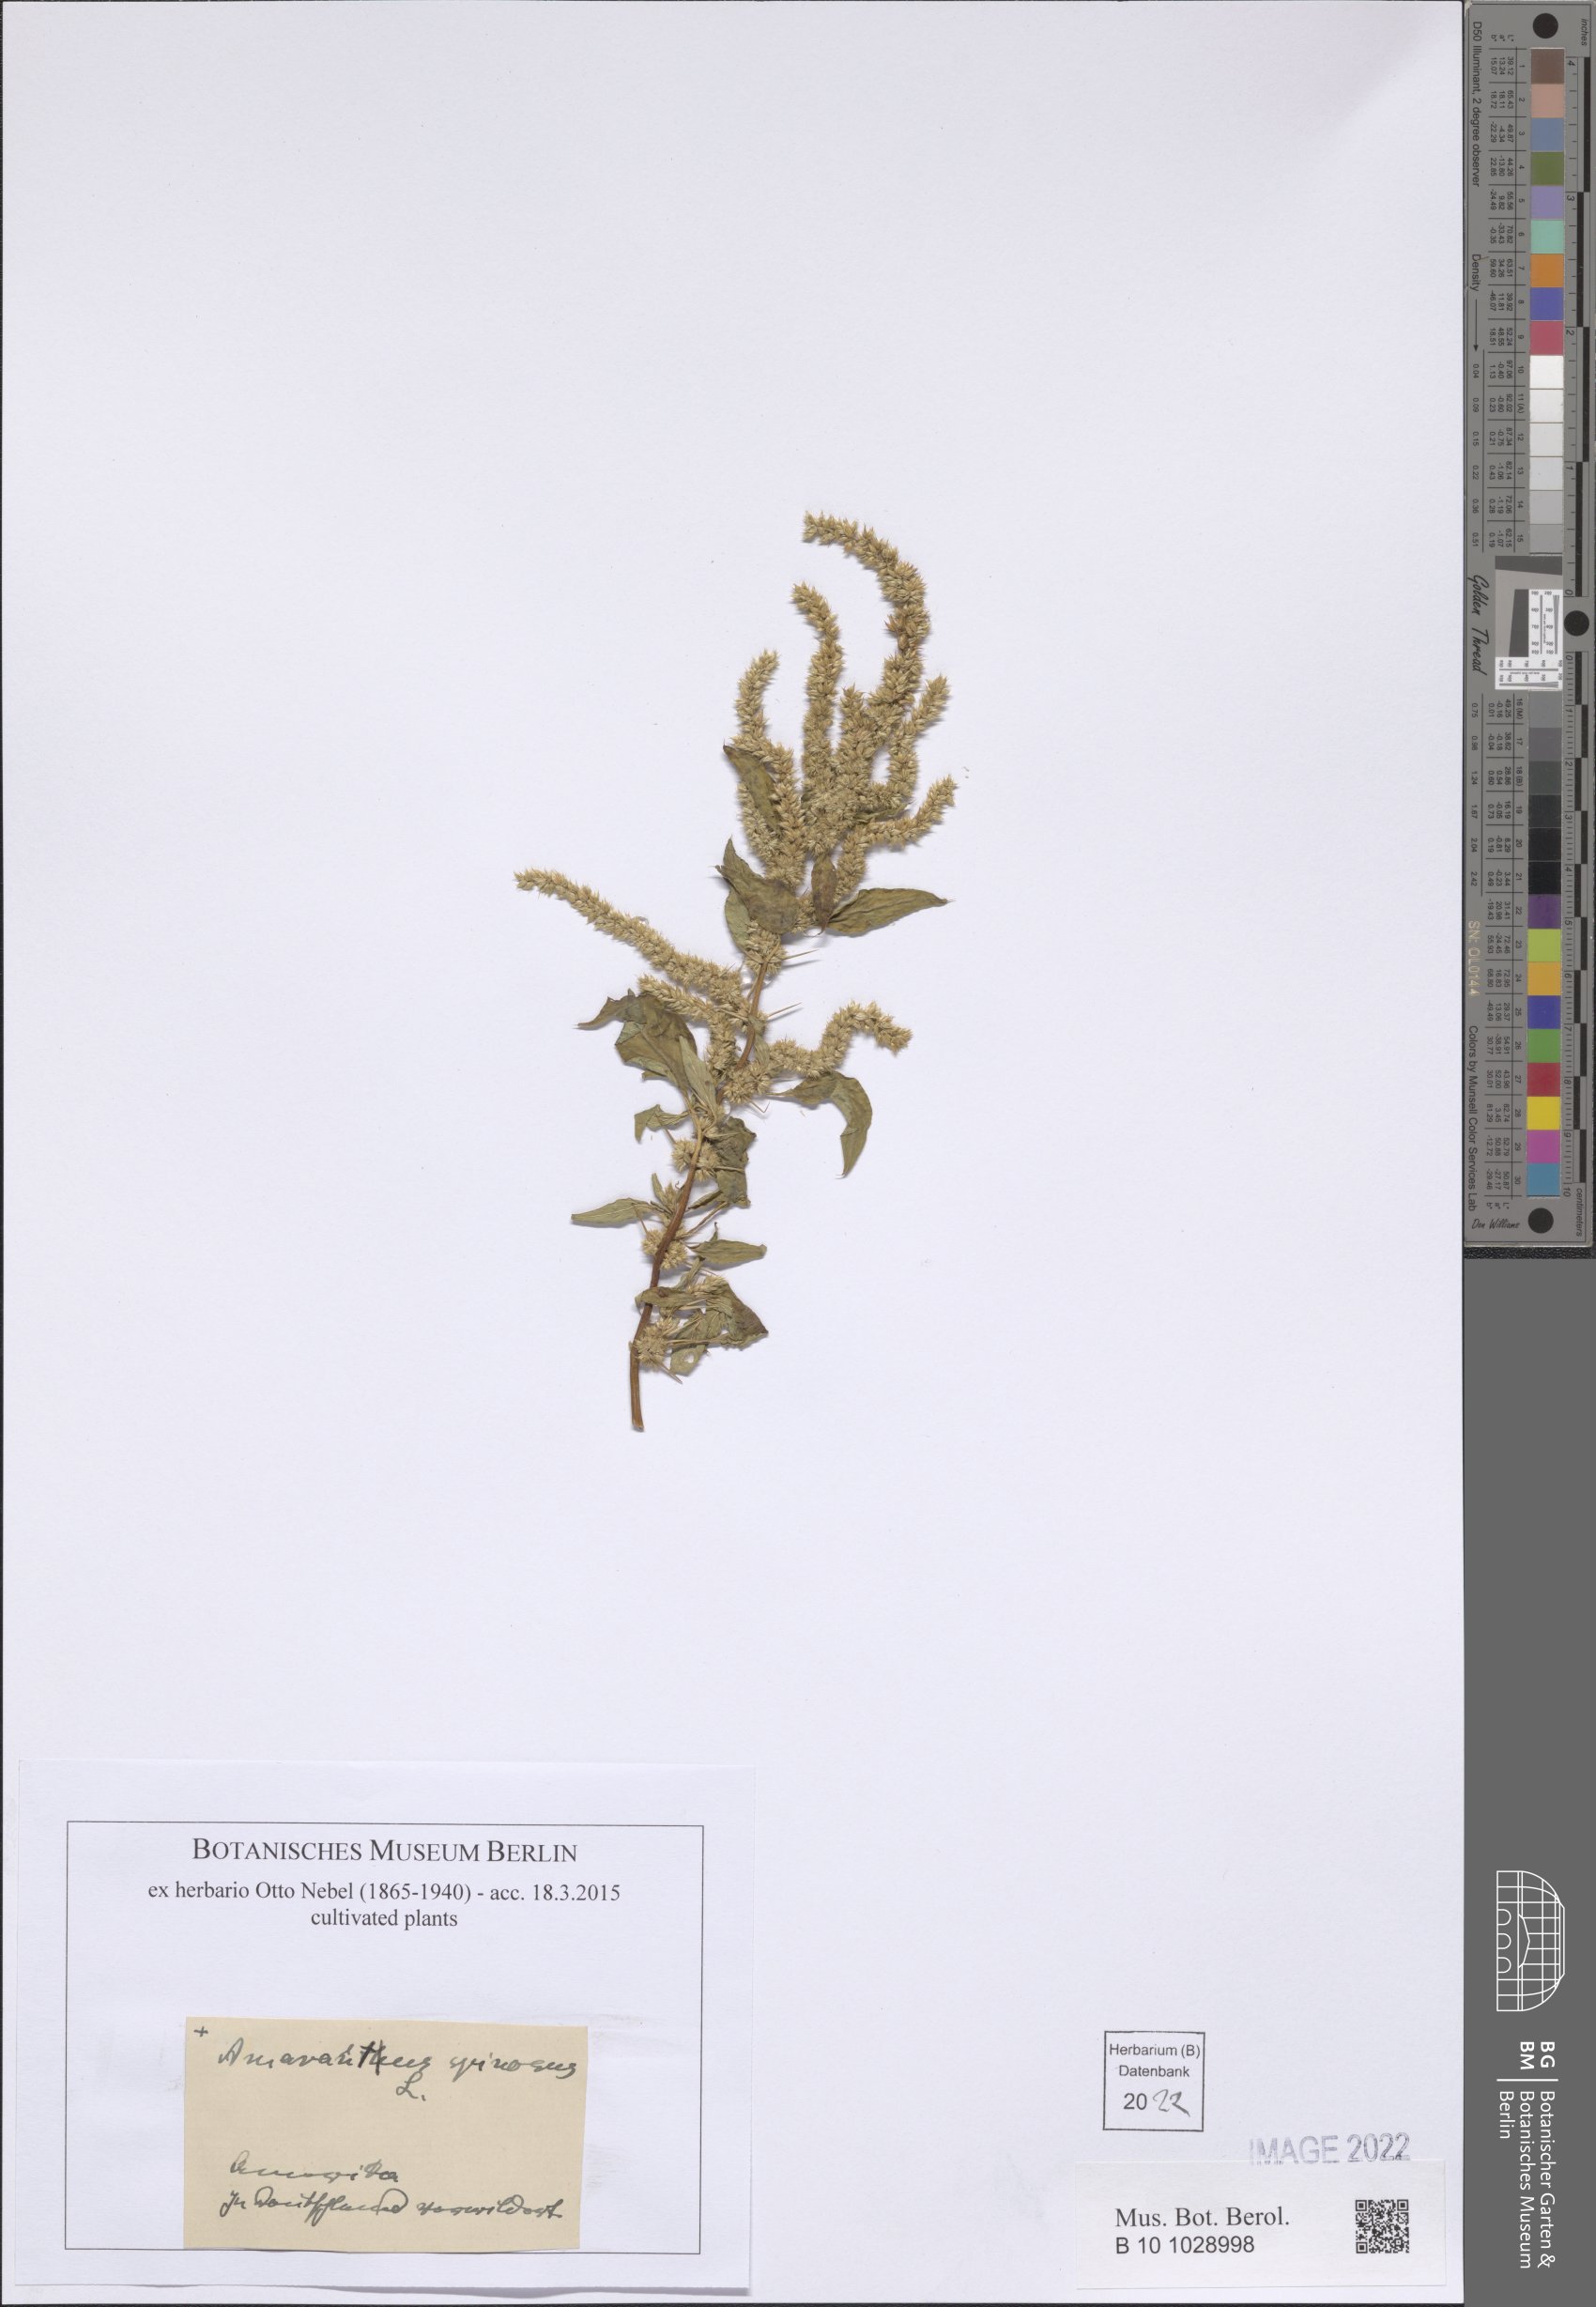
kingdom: Plantae
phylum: Tracheophyta
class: Magnoliopsida
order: Caryophyllales
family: Amaranthaceae
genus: Amaranthus
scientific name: Amaranthus spinosus
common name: Spiny amaranth
